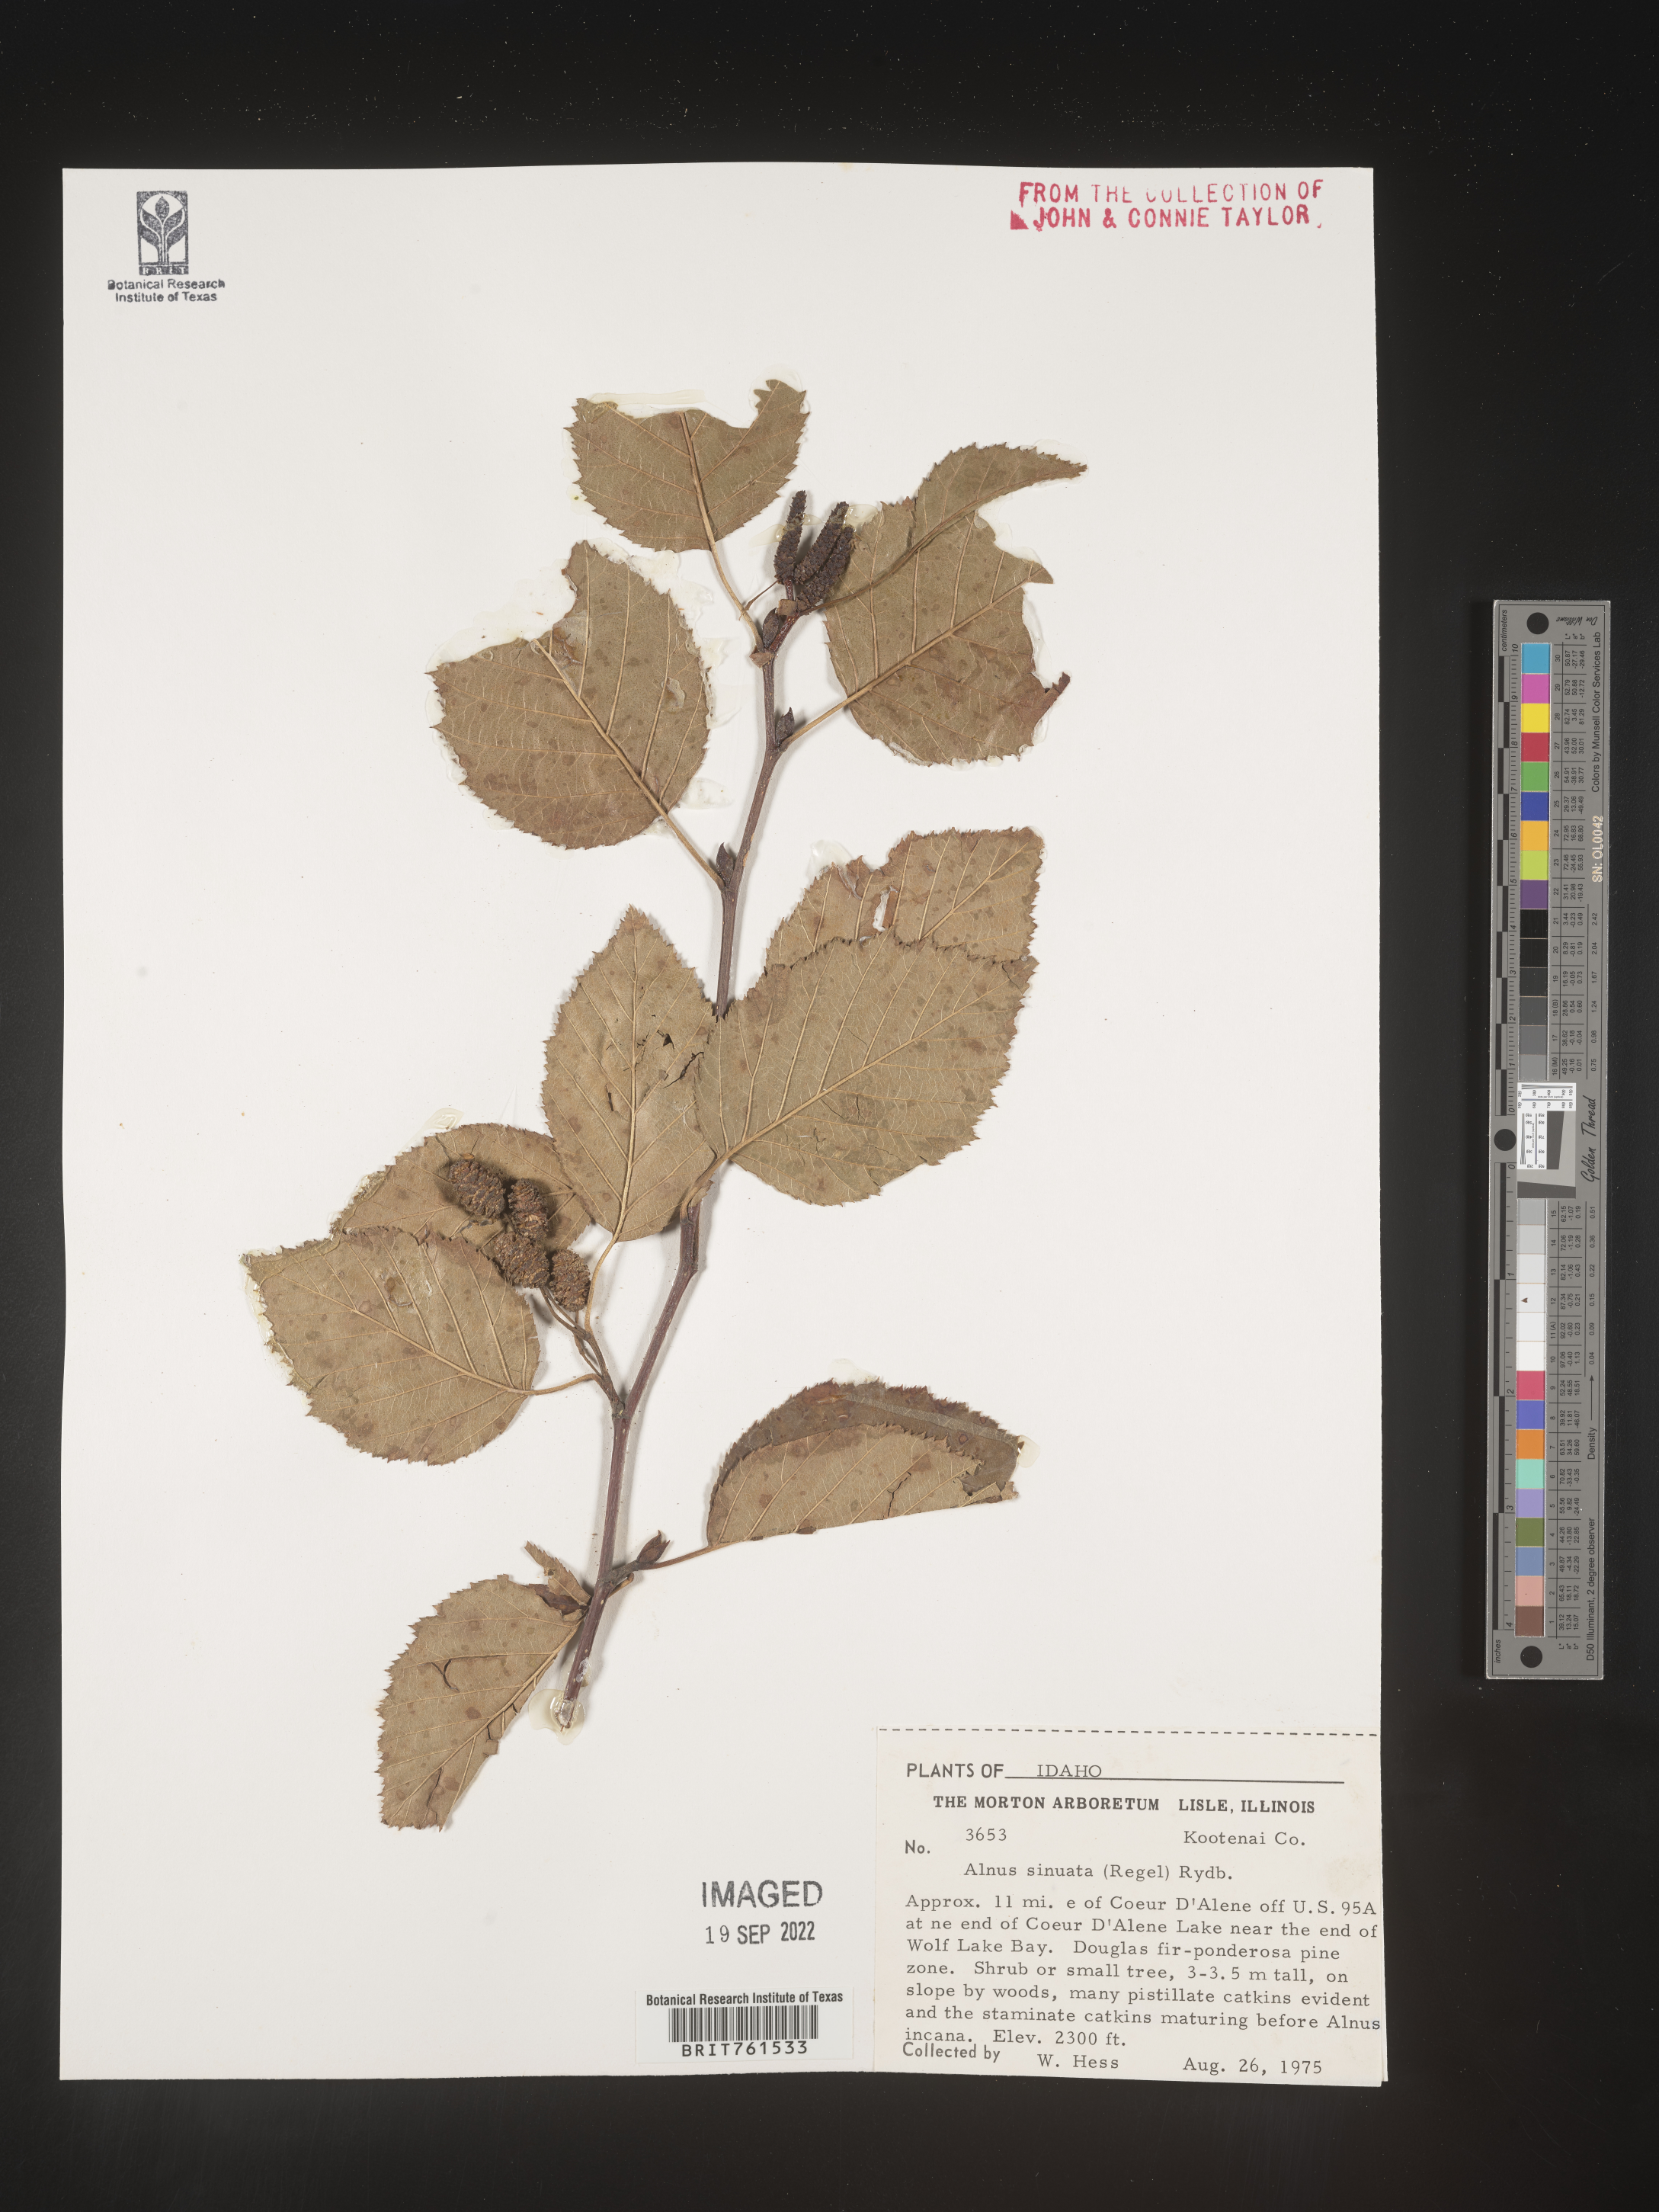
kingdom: Plantae
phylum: Tracheophyta
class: Magnoliopsida
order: Fagales
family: Betulaceae
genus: Alnus
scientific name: Alnus alnobetula
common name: Green alder
